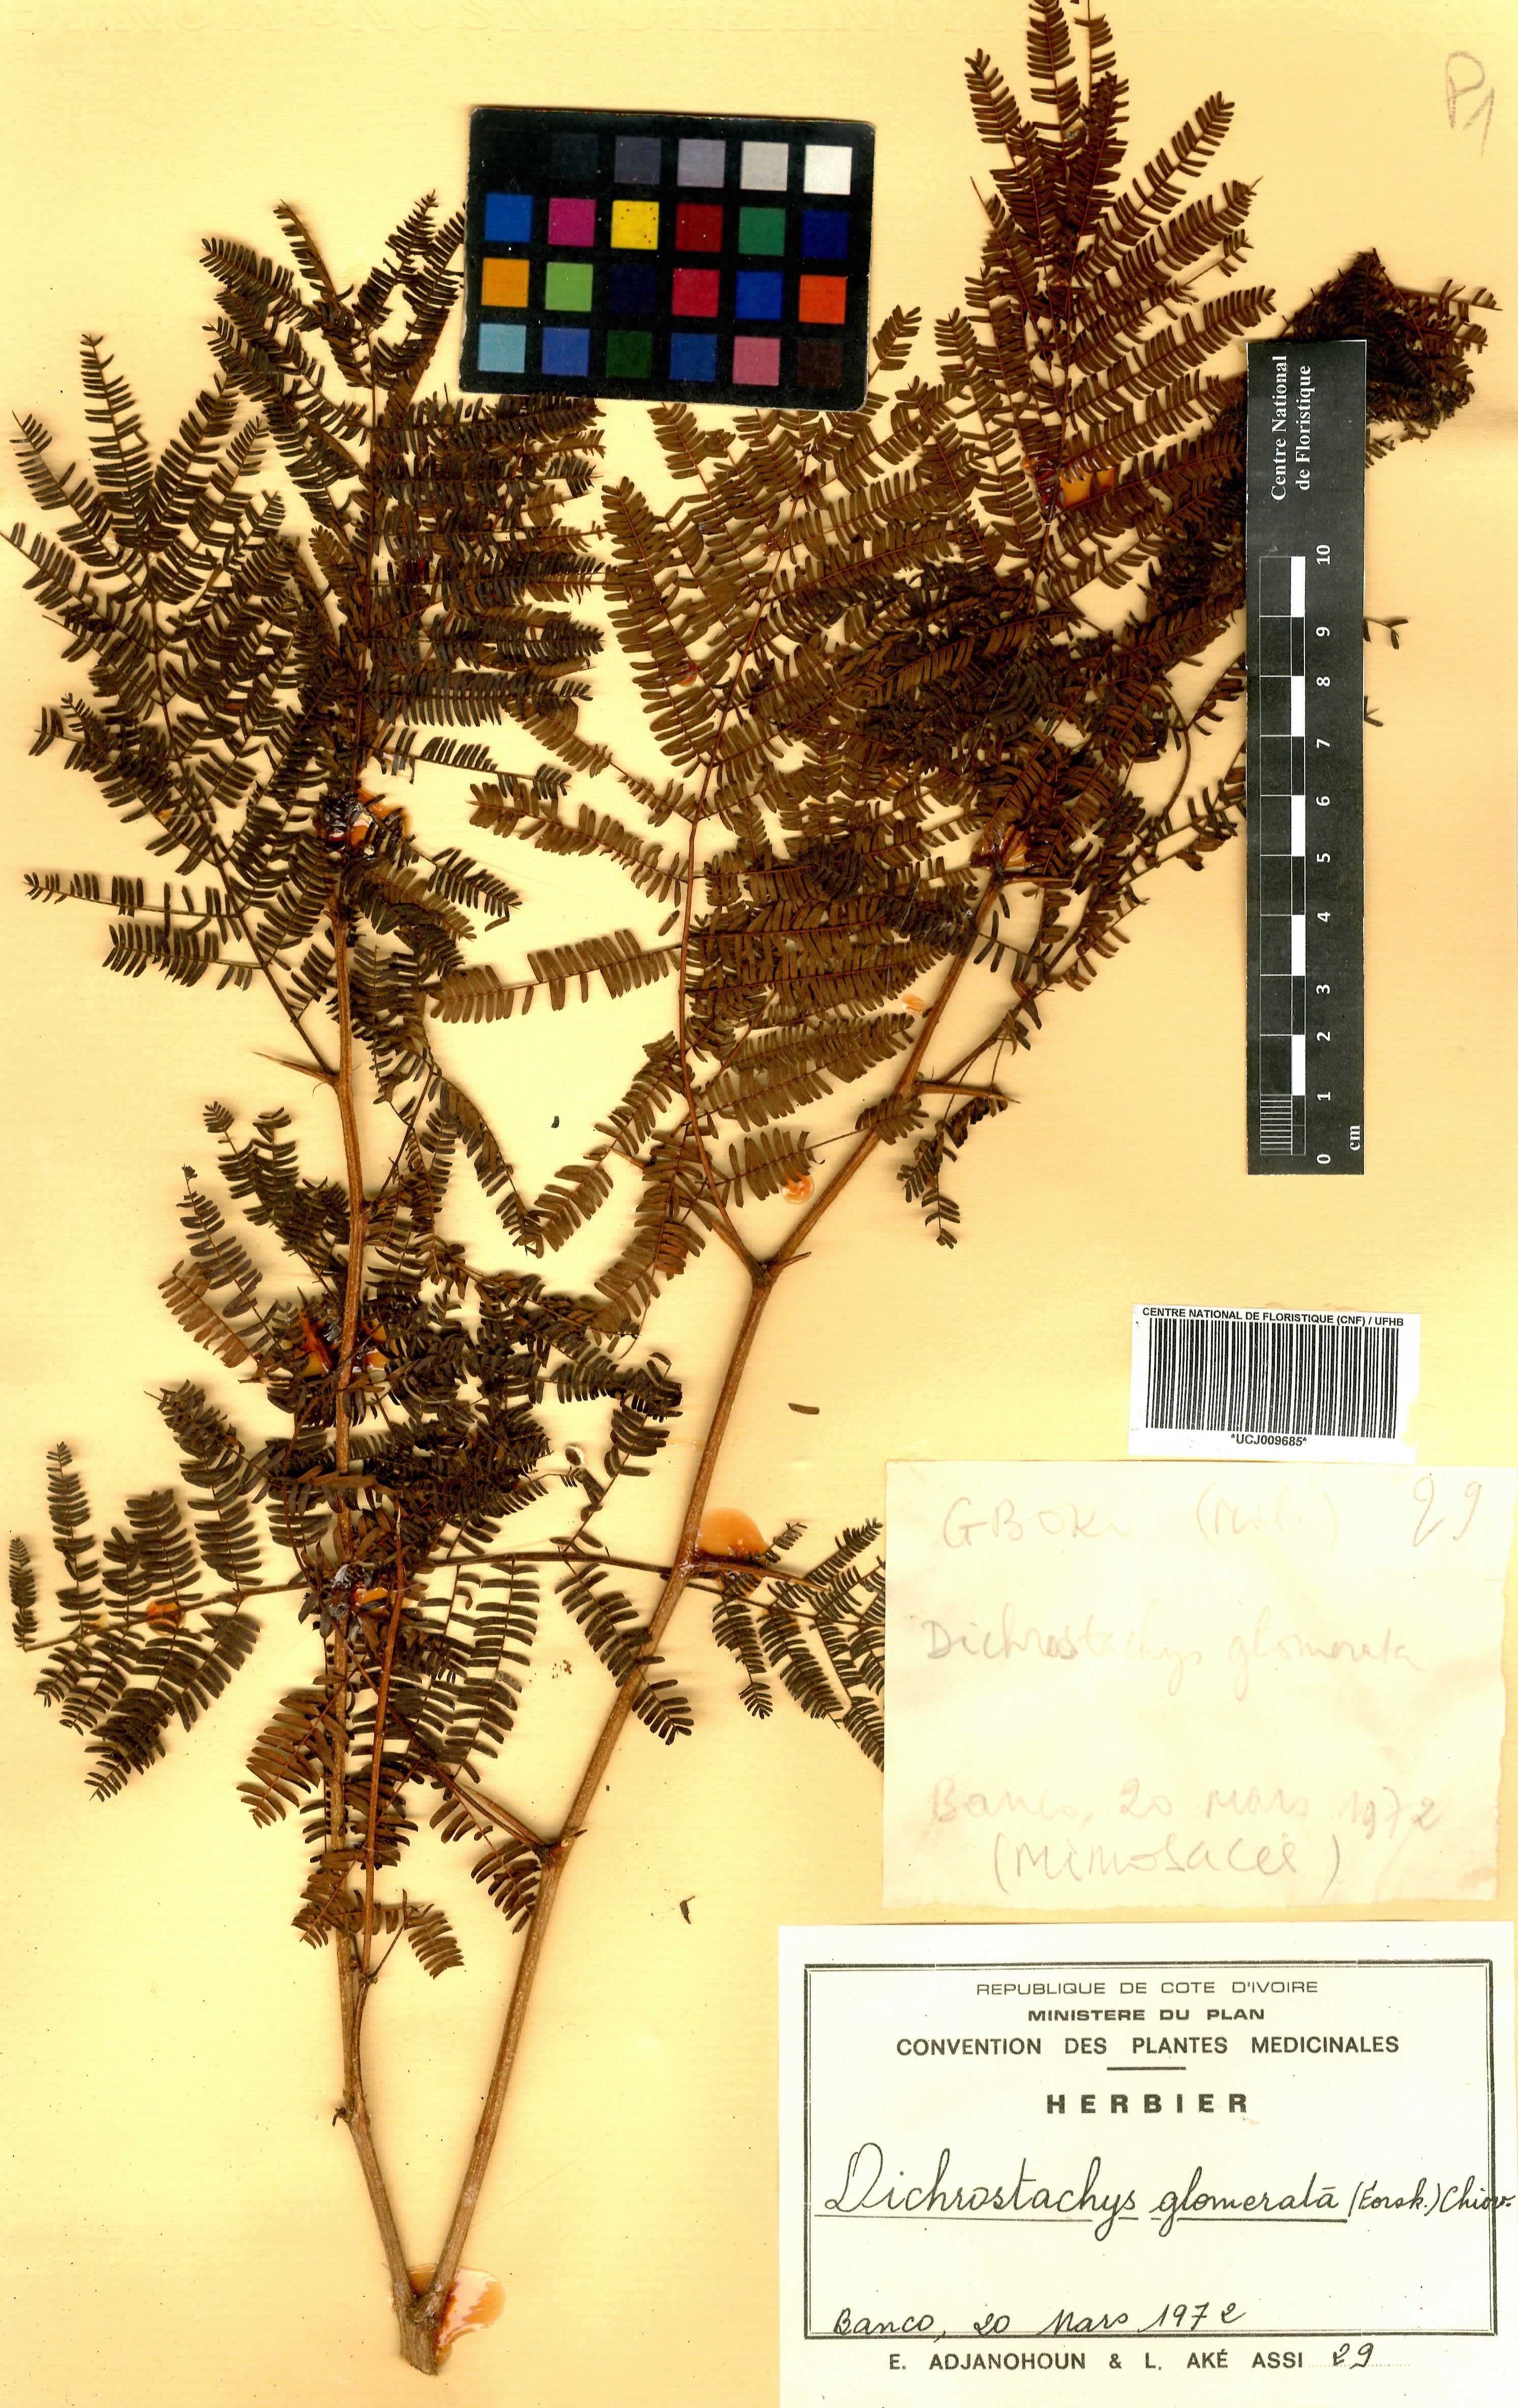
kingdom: Plantae
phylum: Tracheophyta
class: Magnoliopsida
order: Fabales
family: Fabaceae
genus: Dichrostachys
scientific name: Dichrostachys cinerea
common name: Sicklebush
